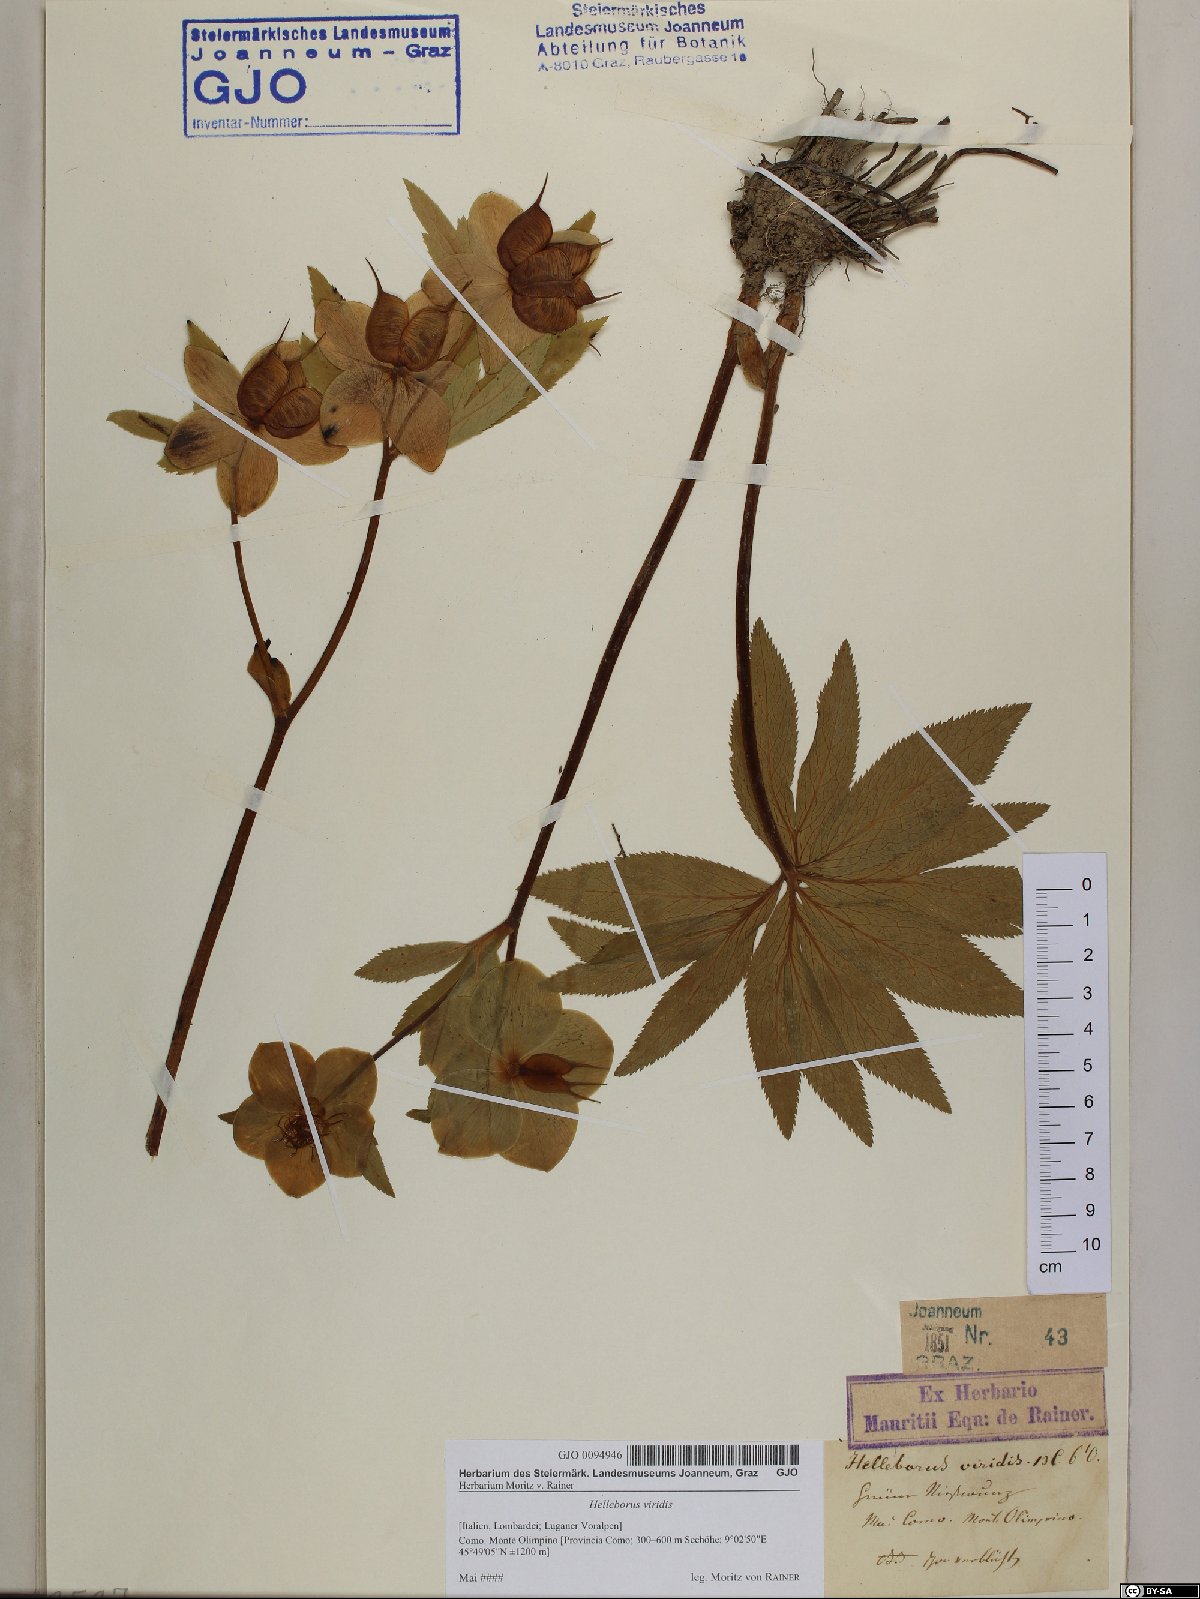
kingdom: Plantae
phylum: Tracheophyta
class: Magnoliopsida
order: Ranunculales
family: Ranunculaceae
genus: Helleborus
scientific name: Helleborus viridis
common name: Green hellebore
